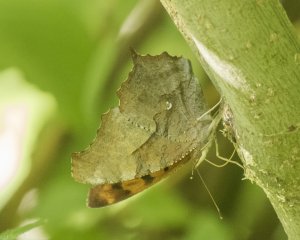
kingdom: Animalia
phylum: Arthropoda
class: Insecta
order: Lepidoptera
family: Nymphalidae
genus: Polygonia
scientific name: Polygonia interrogationis
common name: Question Mark
